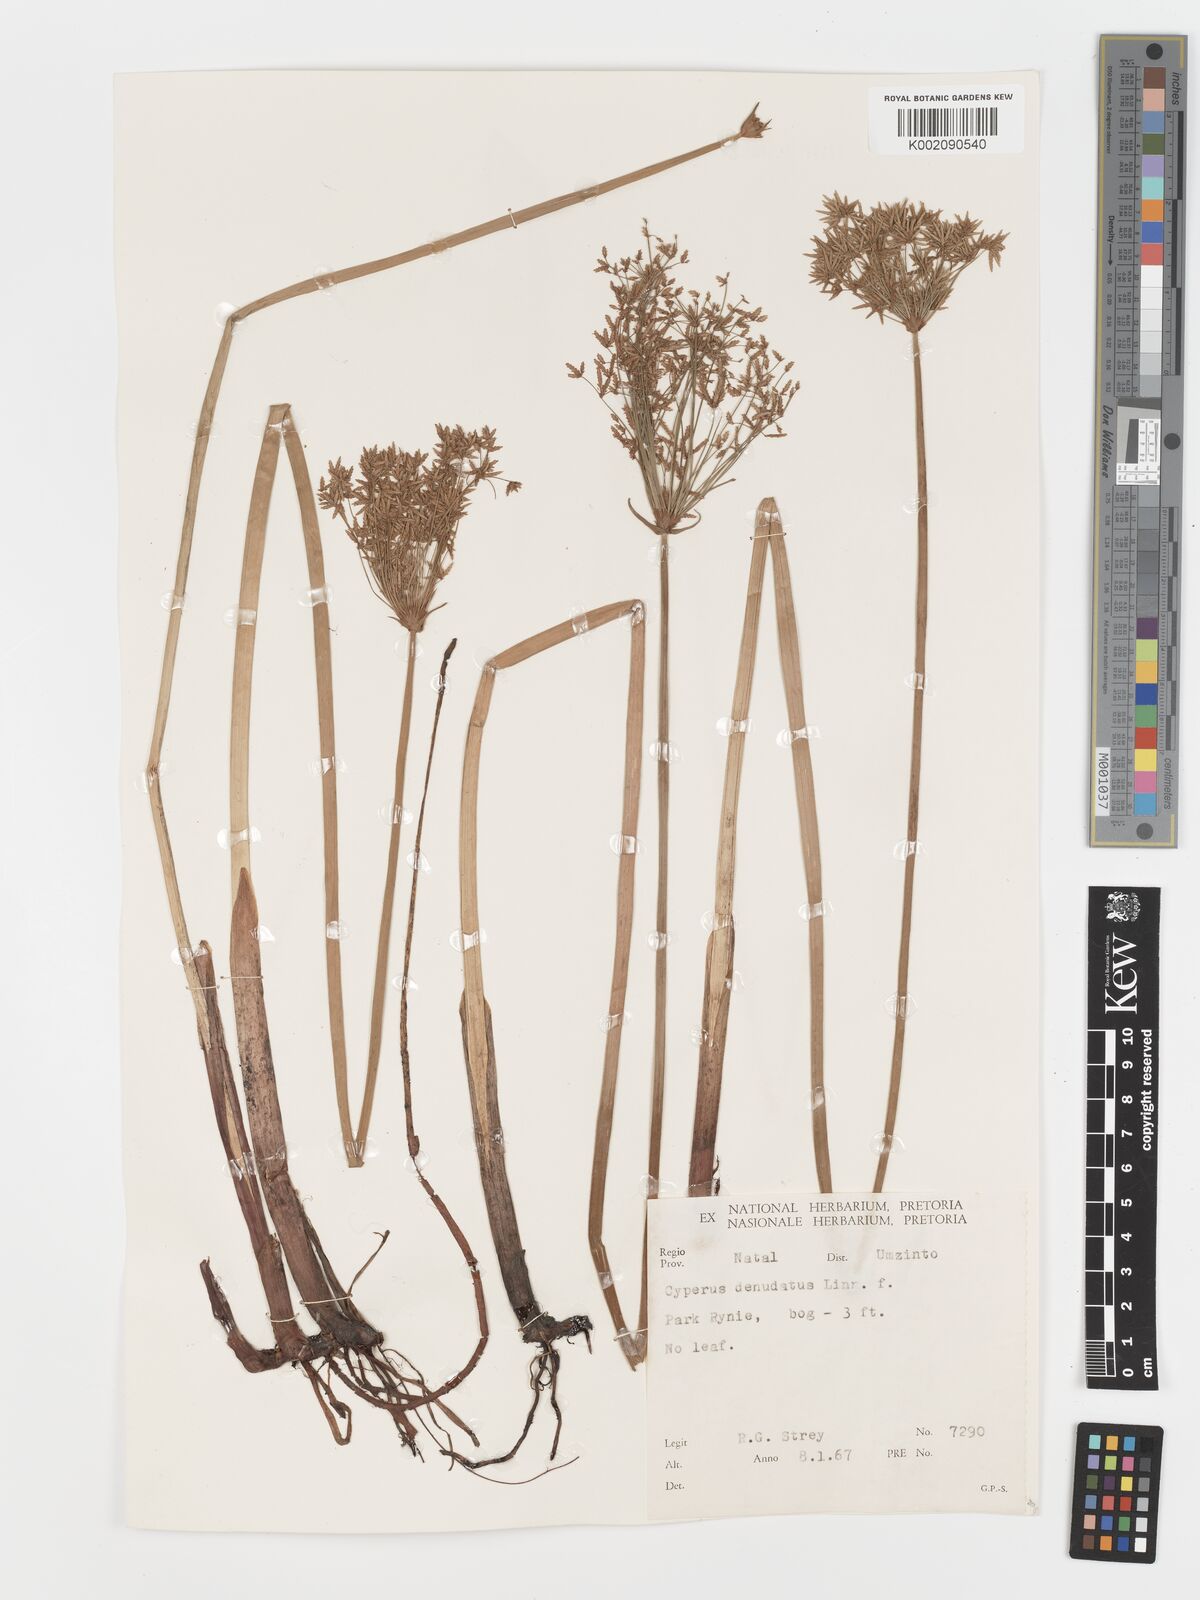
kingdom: Plantae
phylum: Tracheophyta
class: Liliopsida
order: Poales
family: Cyperaceae
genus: Cyperus
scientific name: Cyperus prolifer
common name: Miniature flatsedge
